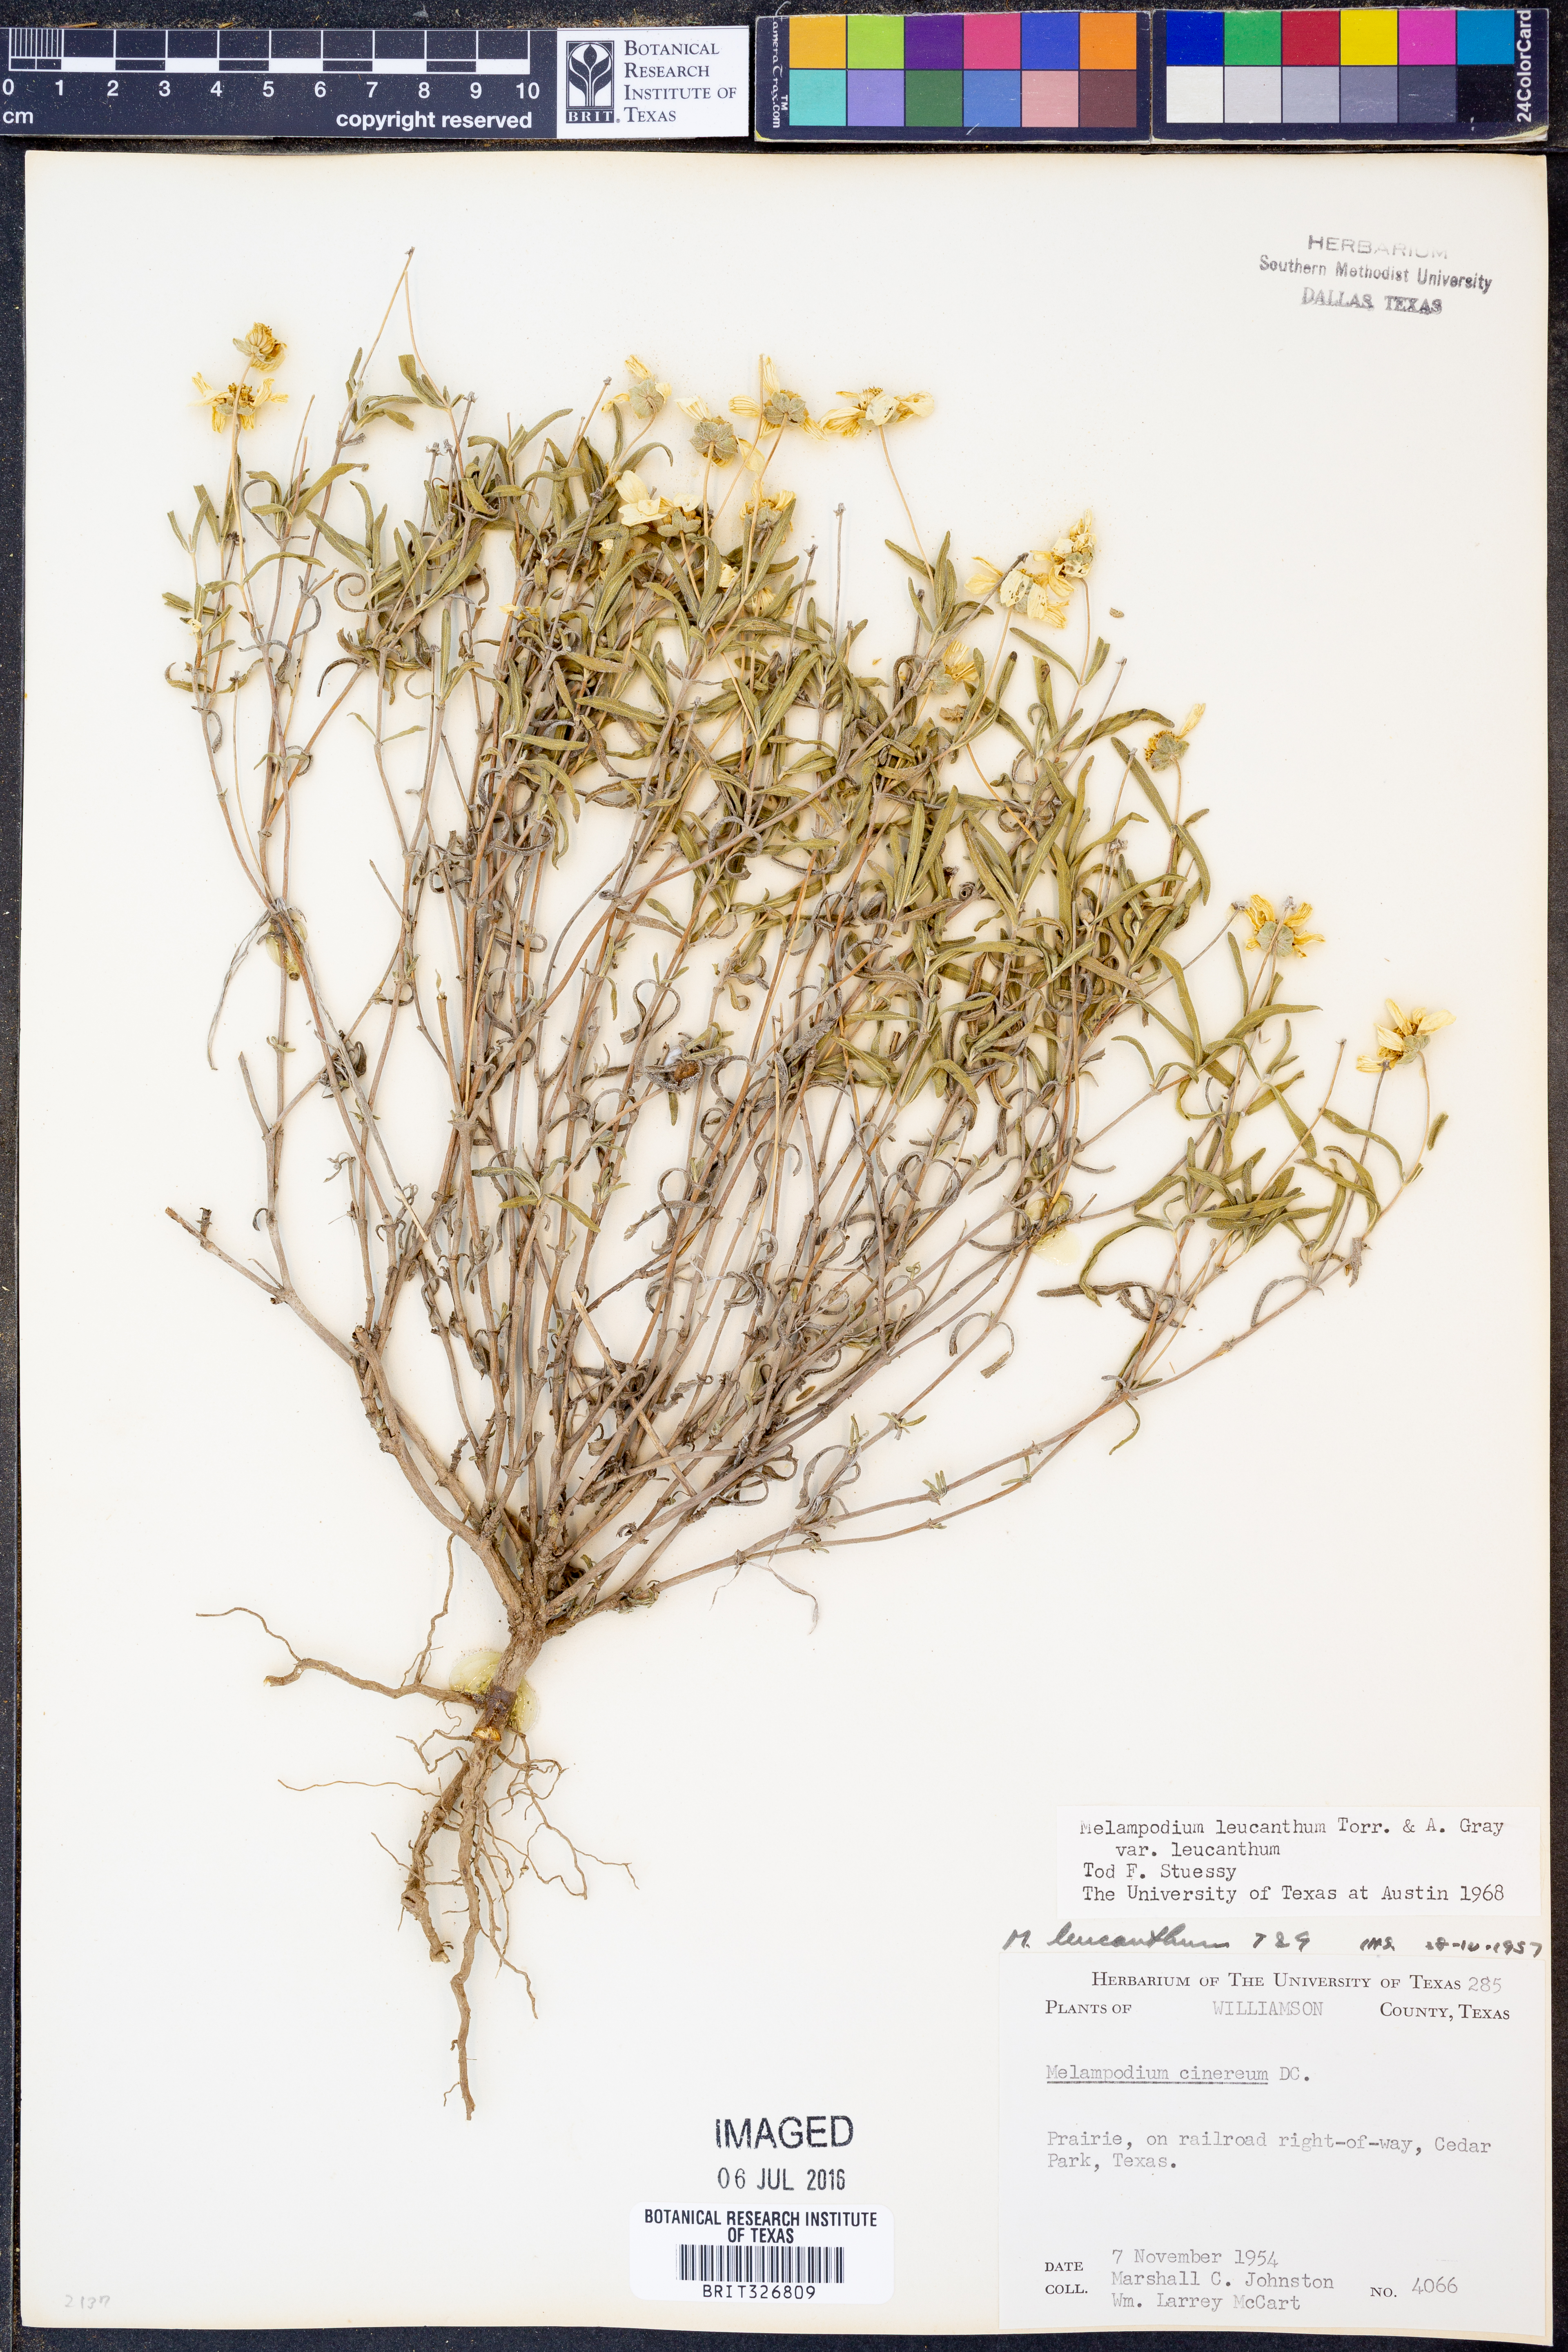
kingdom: Plantae
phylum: Tracheophyta
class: Magnoliopsida
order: Asterales
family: Asteraceae
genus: Melampodium
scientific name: Melampodium leucanthum
